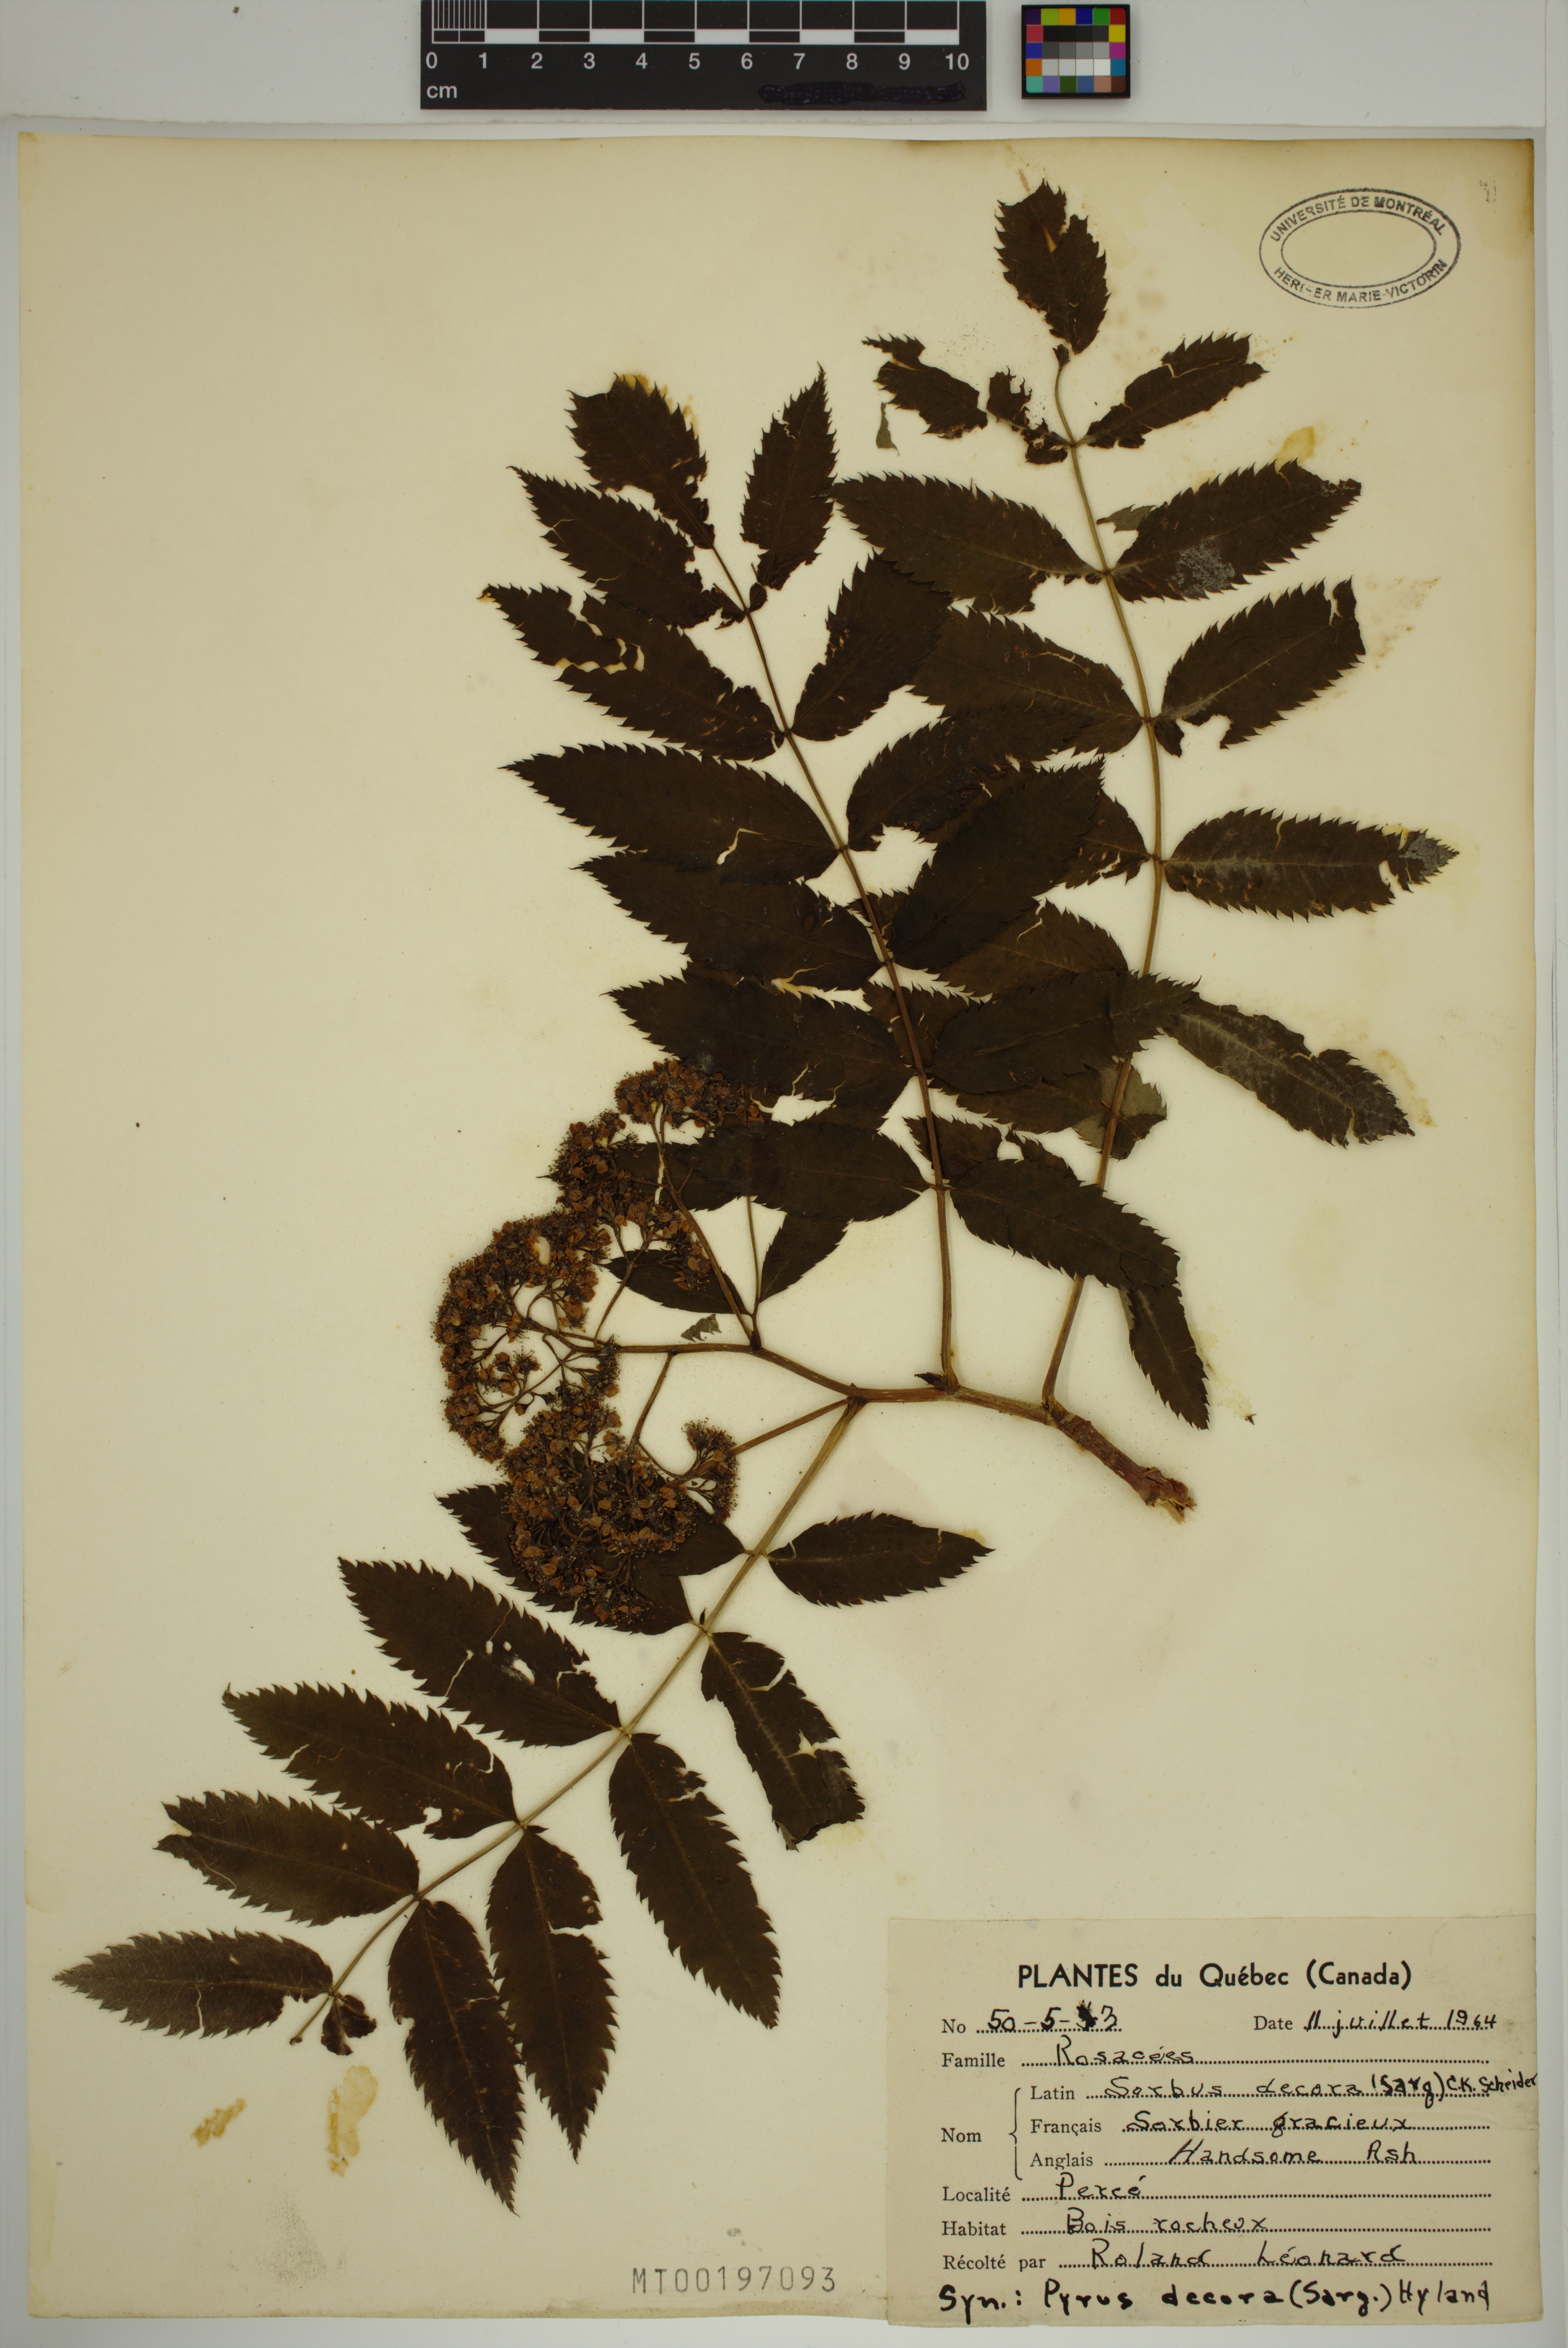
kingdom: Plantae
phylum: Tracheophyta
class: Magnoliopsida
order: Rosales
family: Rosaceae
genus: Sorbus
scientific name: Sorbus decora
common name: Northern mountain-ash
